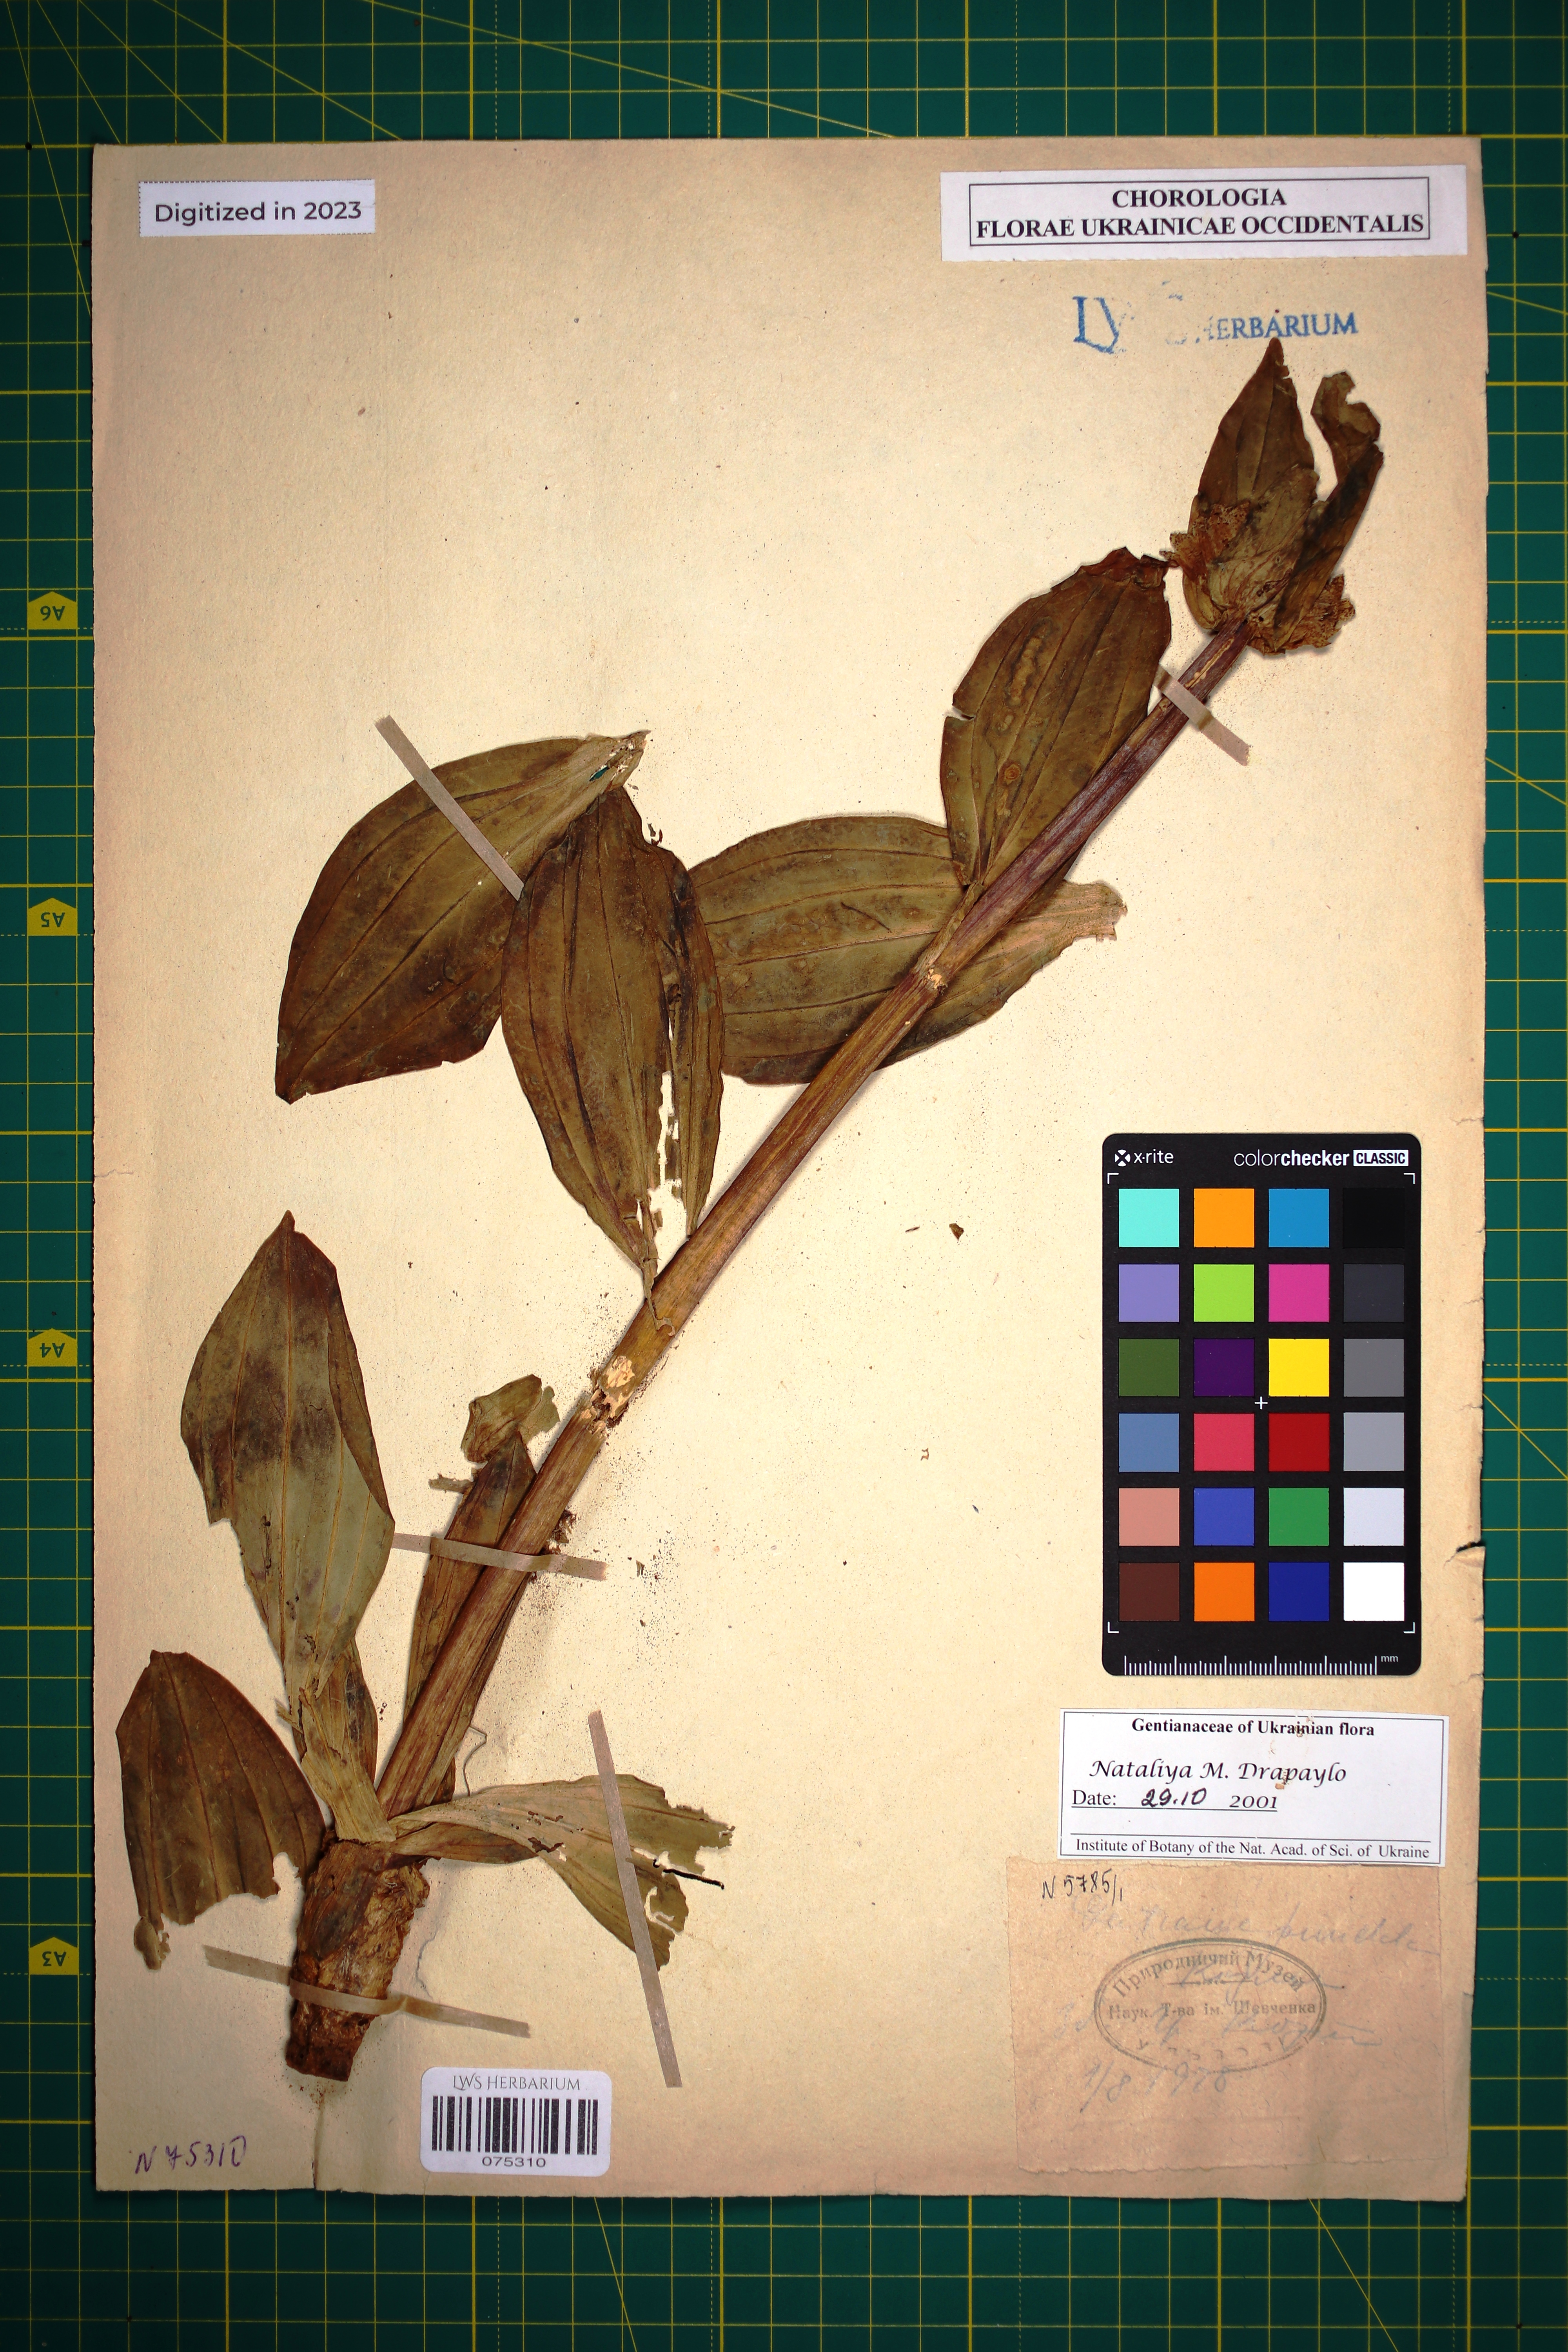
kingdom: Plantae
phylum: Tracheophyta
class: Magnoliopsida
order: Gentianales
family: Gentianaceae
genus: Gentiana
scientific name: Gentiana punctata
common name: Spotted gentian
